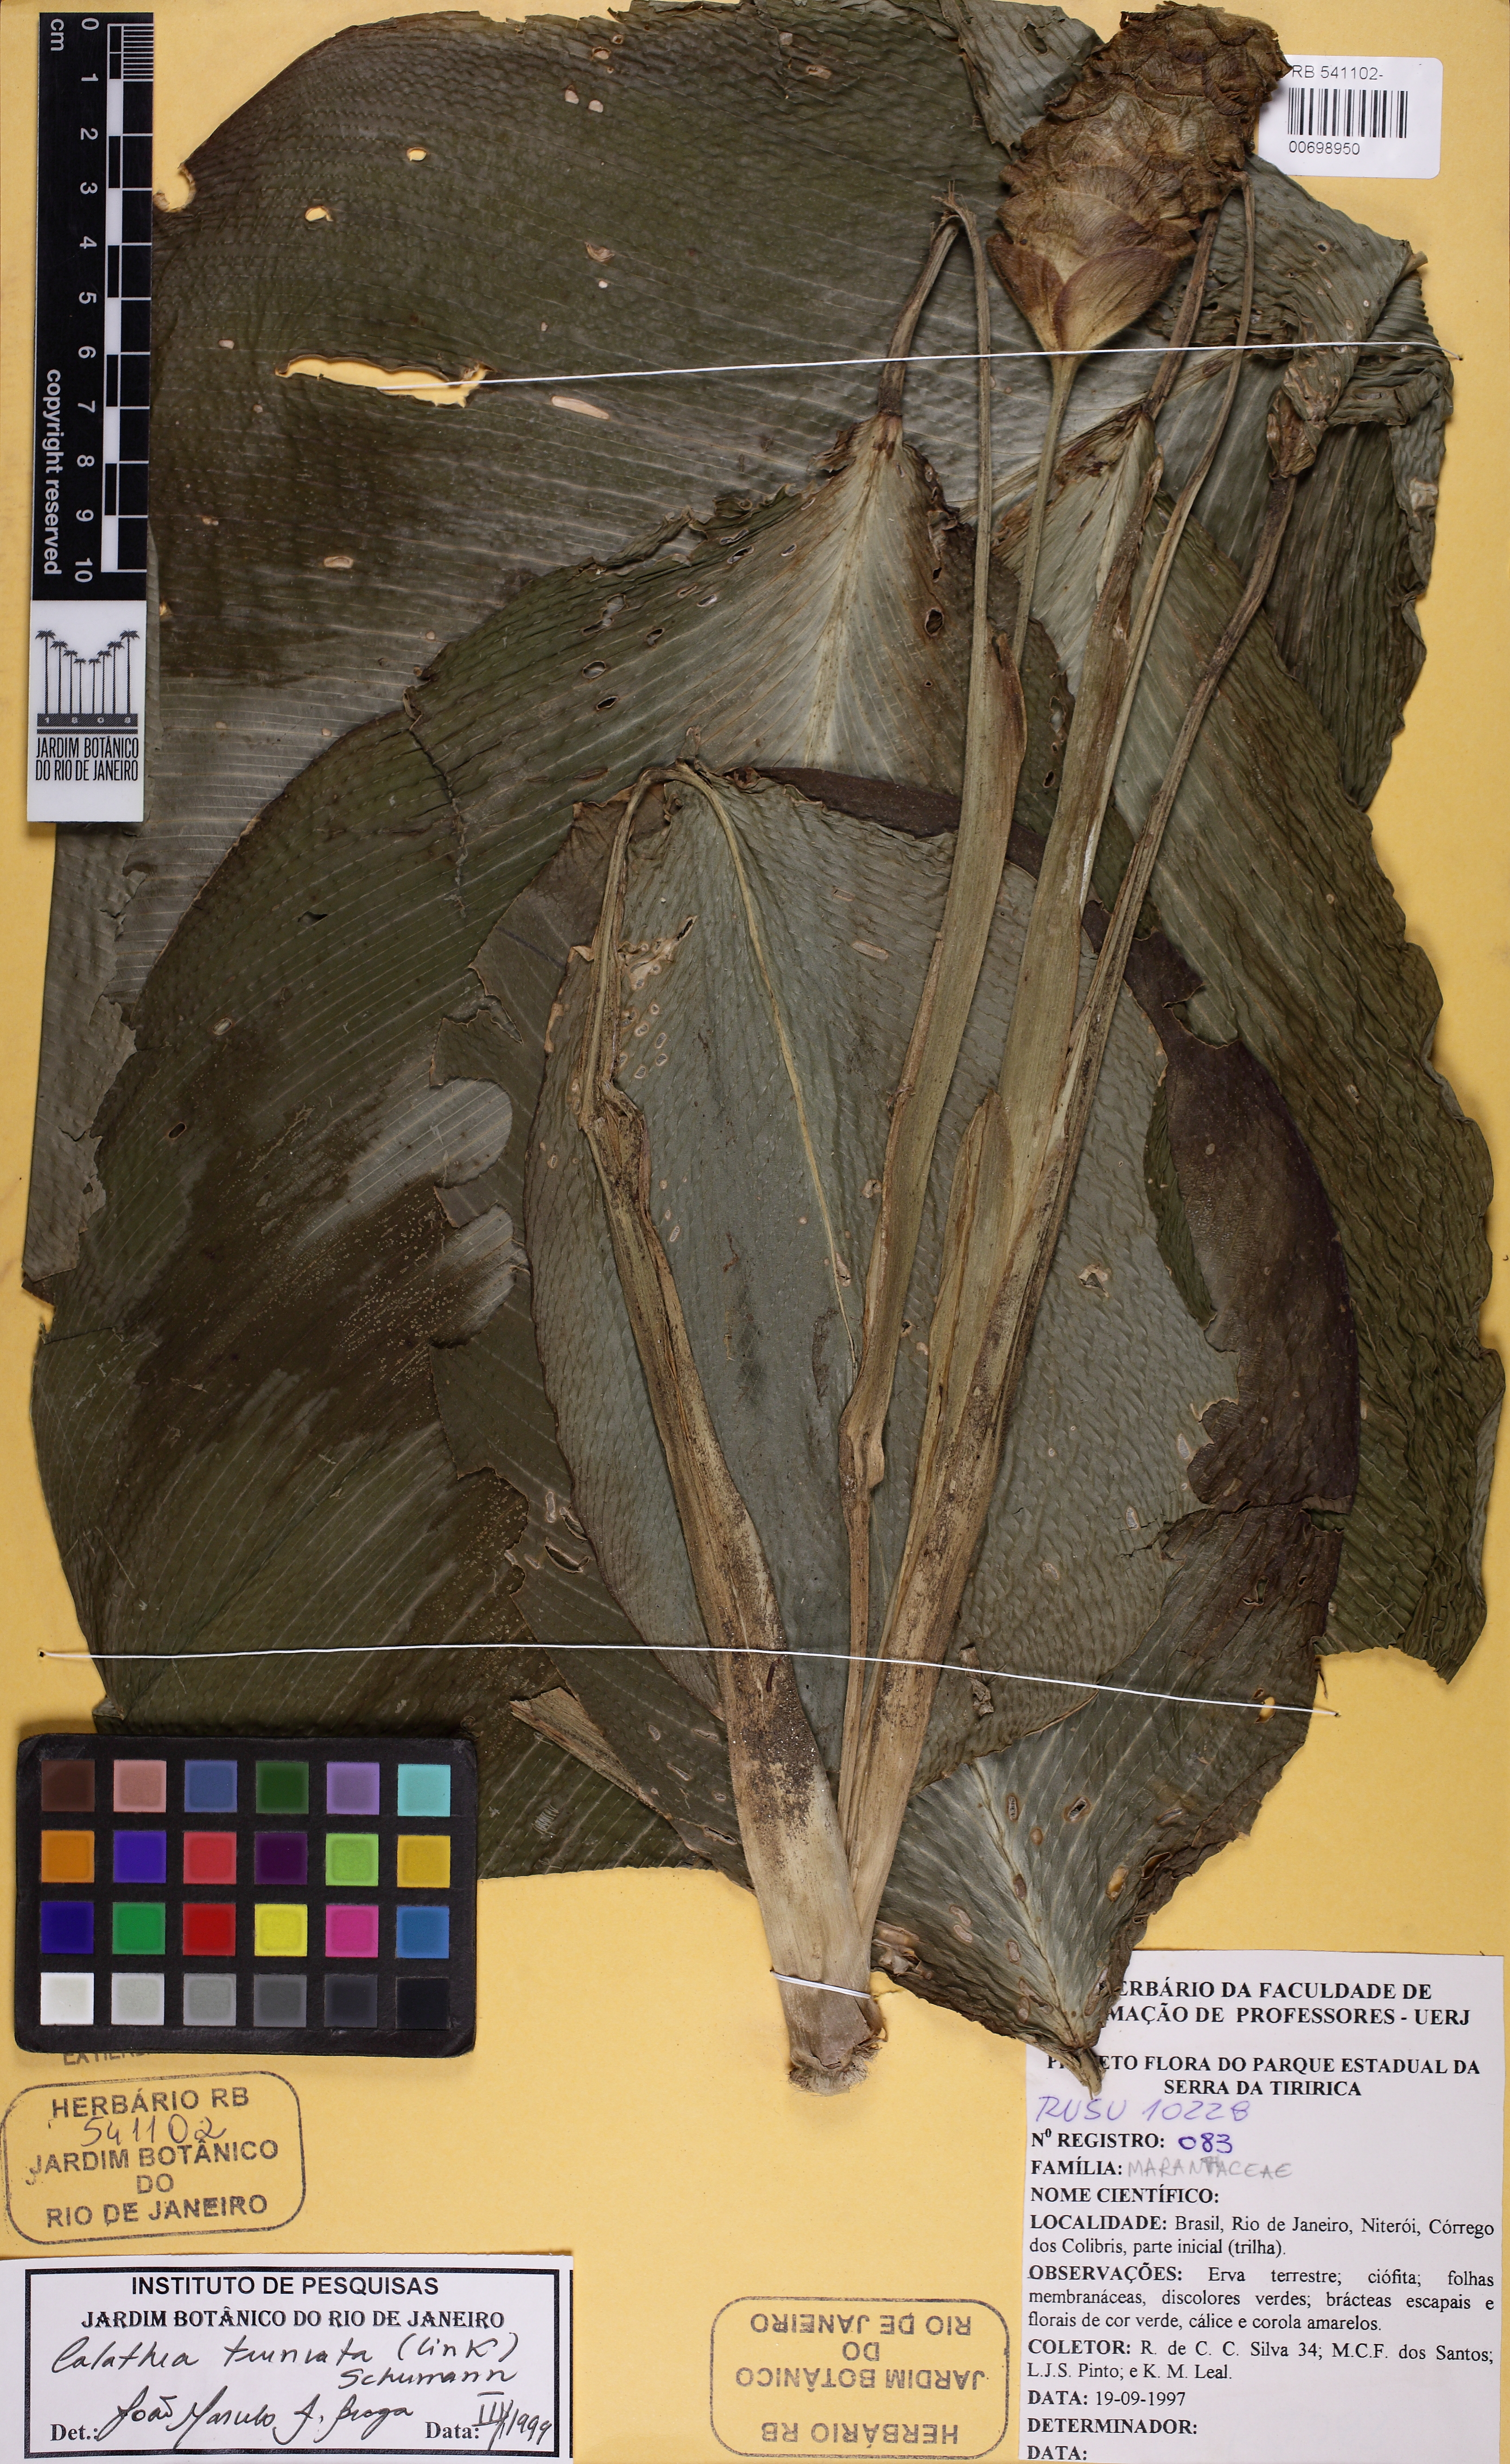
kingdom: Plantae
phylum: Tracheophyta
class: Liliopsida
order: Zingiberales
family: Marantaceae
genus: Goeppertia
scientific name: Goeppertia truncata
